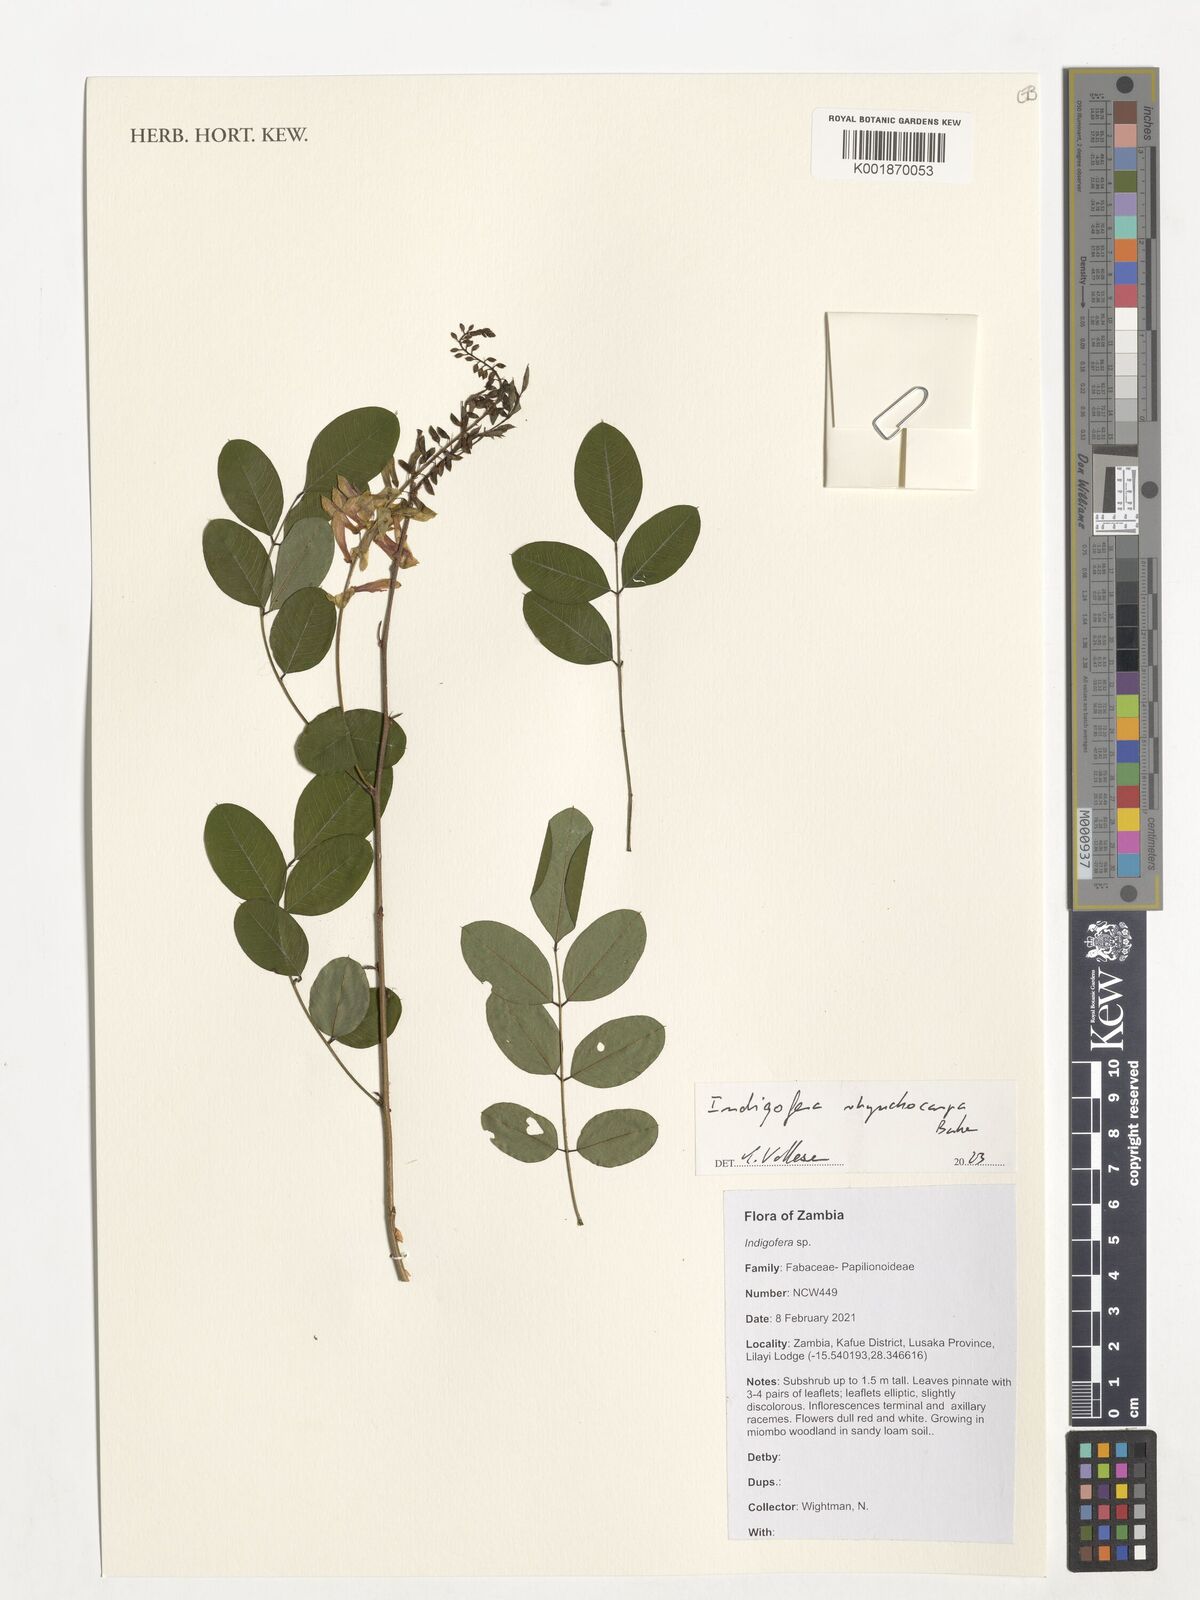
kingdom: Plantae
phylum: Tracheophyta
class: Magnoliopsida
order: Fabales
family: Fabaceae
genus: Indigofera
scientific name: Indigofera
